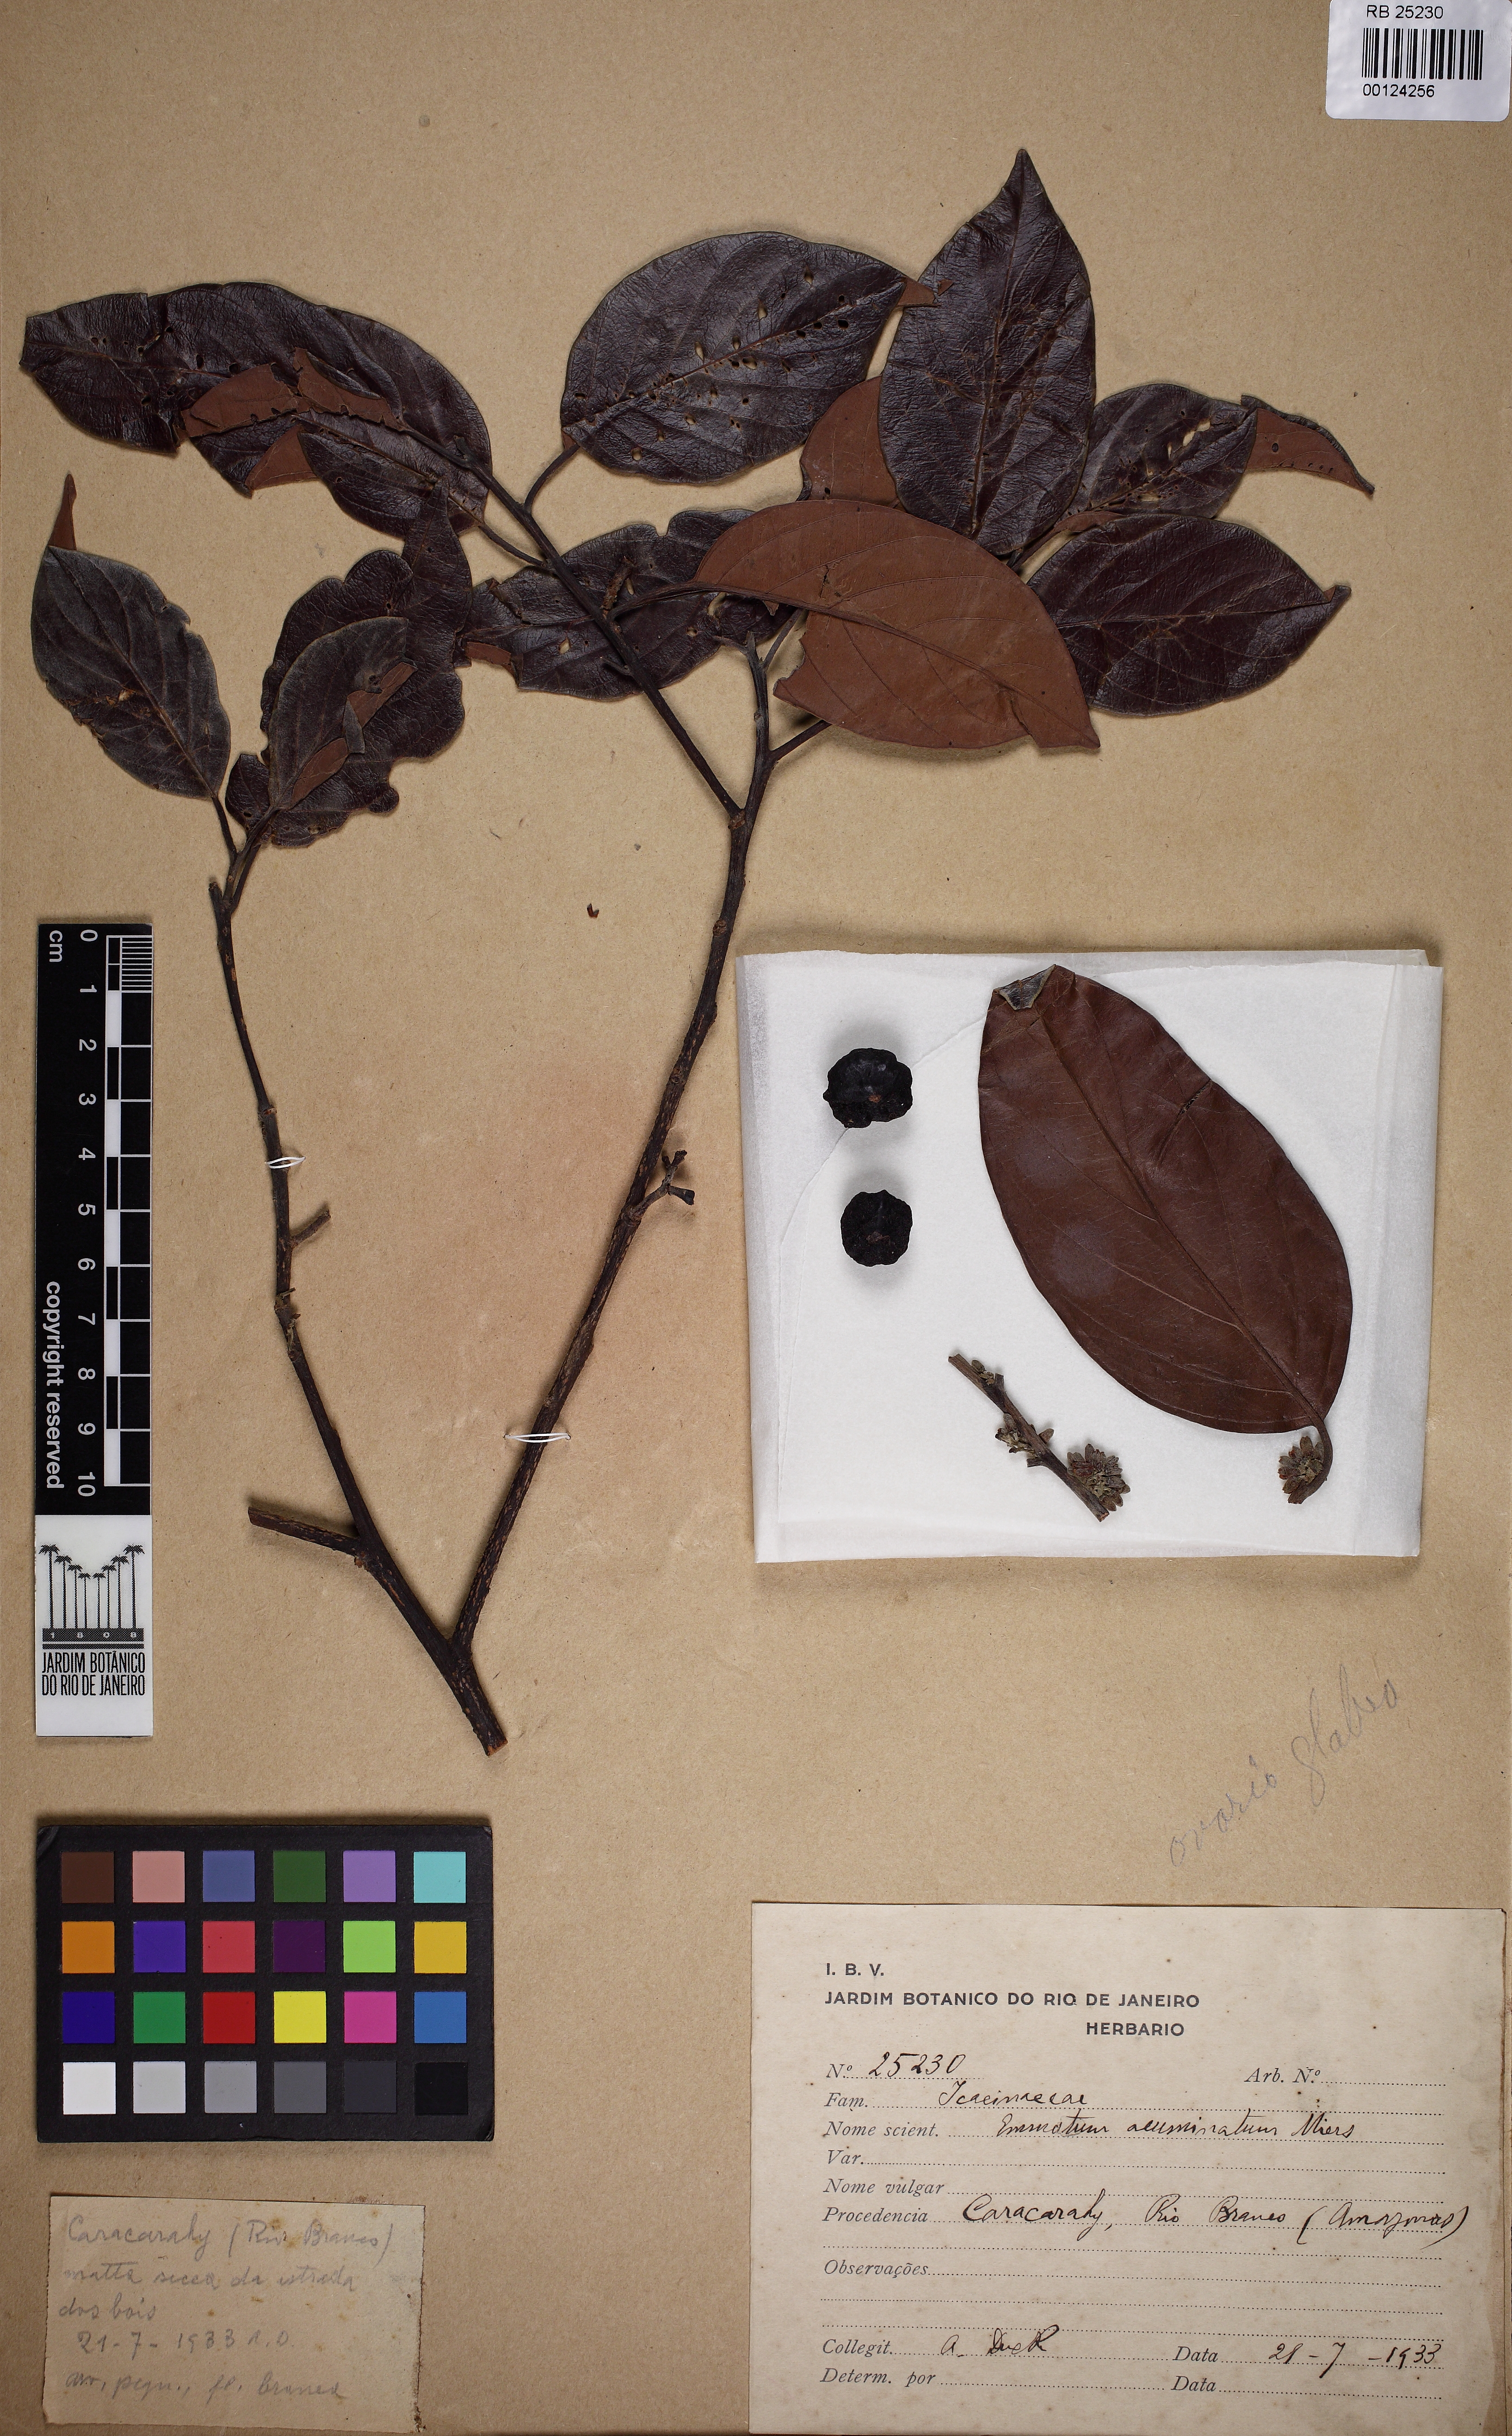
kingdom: Plantae
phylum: Tracheophyta
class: Magnoliopsida
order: Metteniusales
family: Metteniusaceae
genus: Emmotum
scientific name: Emmotum acuminatum
